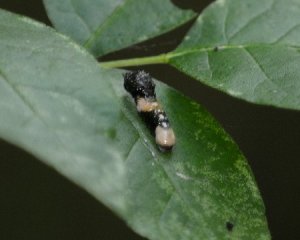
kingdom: Animalia
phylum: Arthropoda
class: Insecta
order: Lepidoptera
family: Papilionidae
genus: Papilio
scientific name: Papilio cresphontes
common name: Eastern Giant Swallowtail
